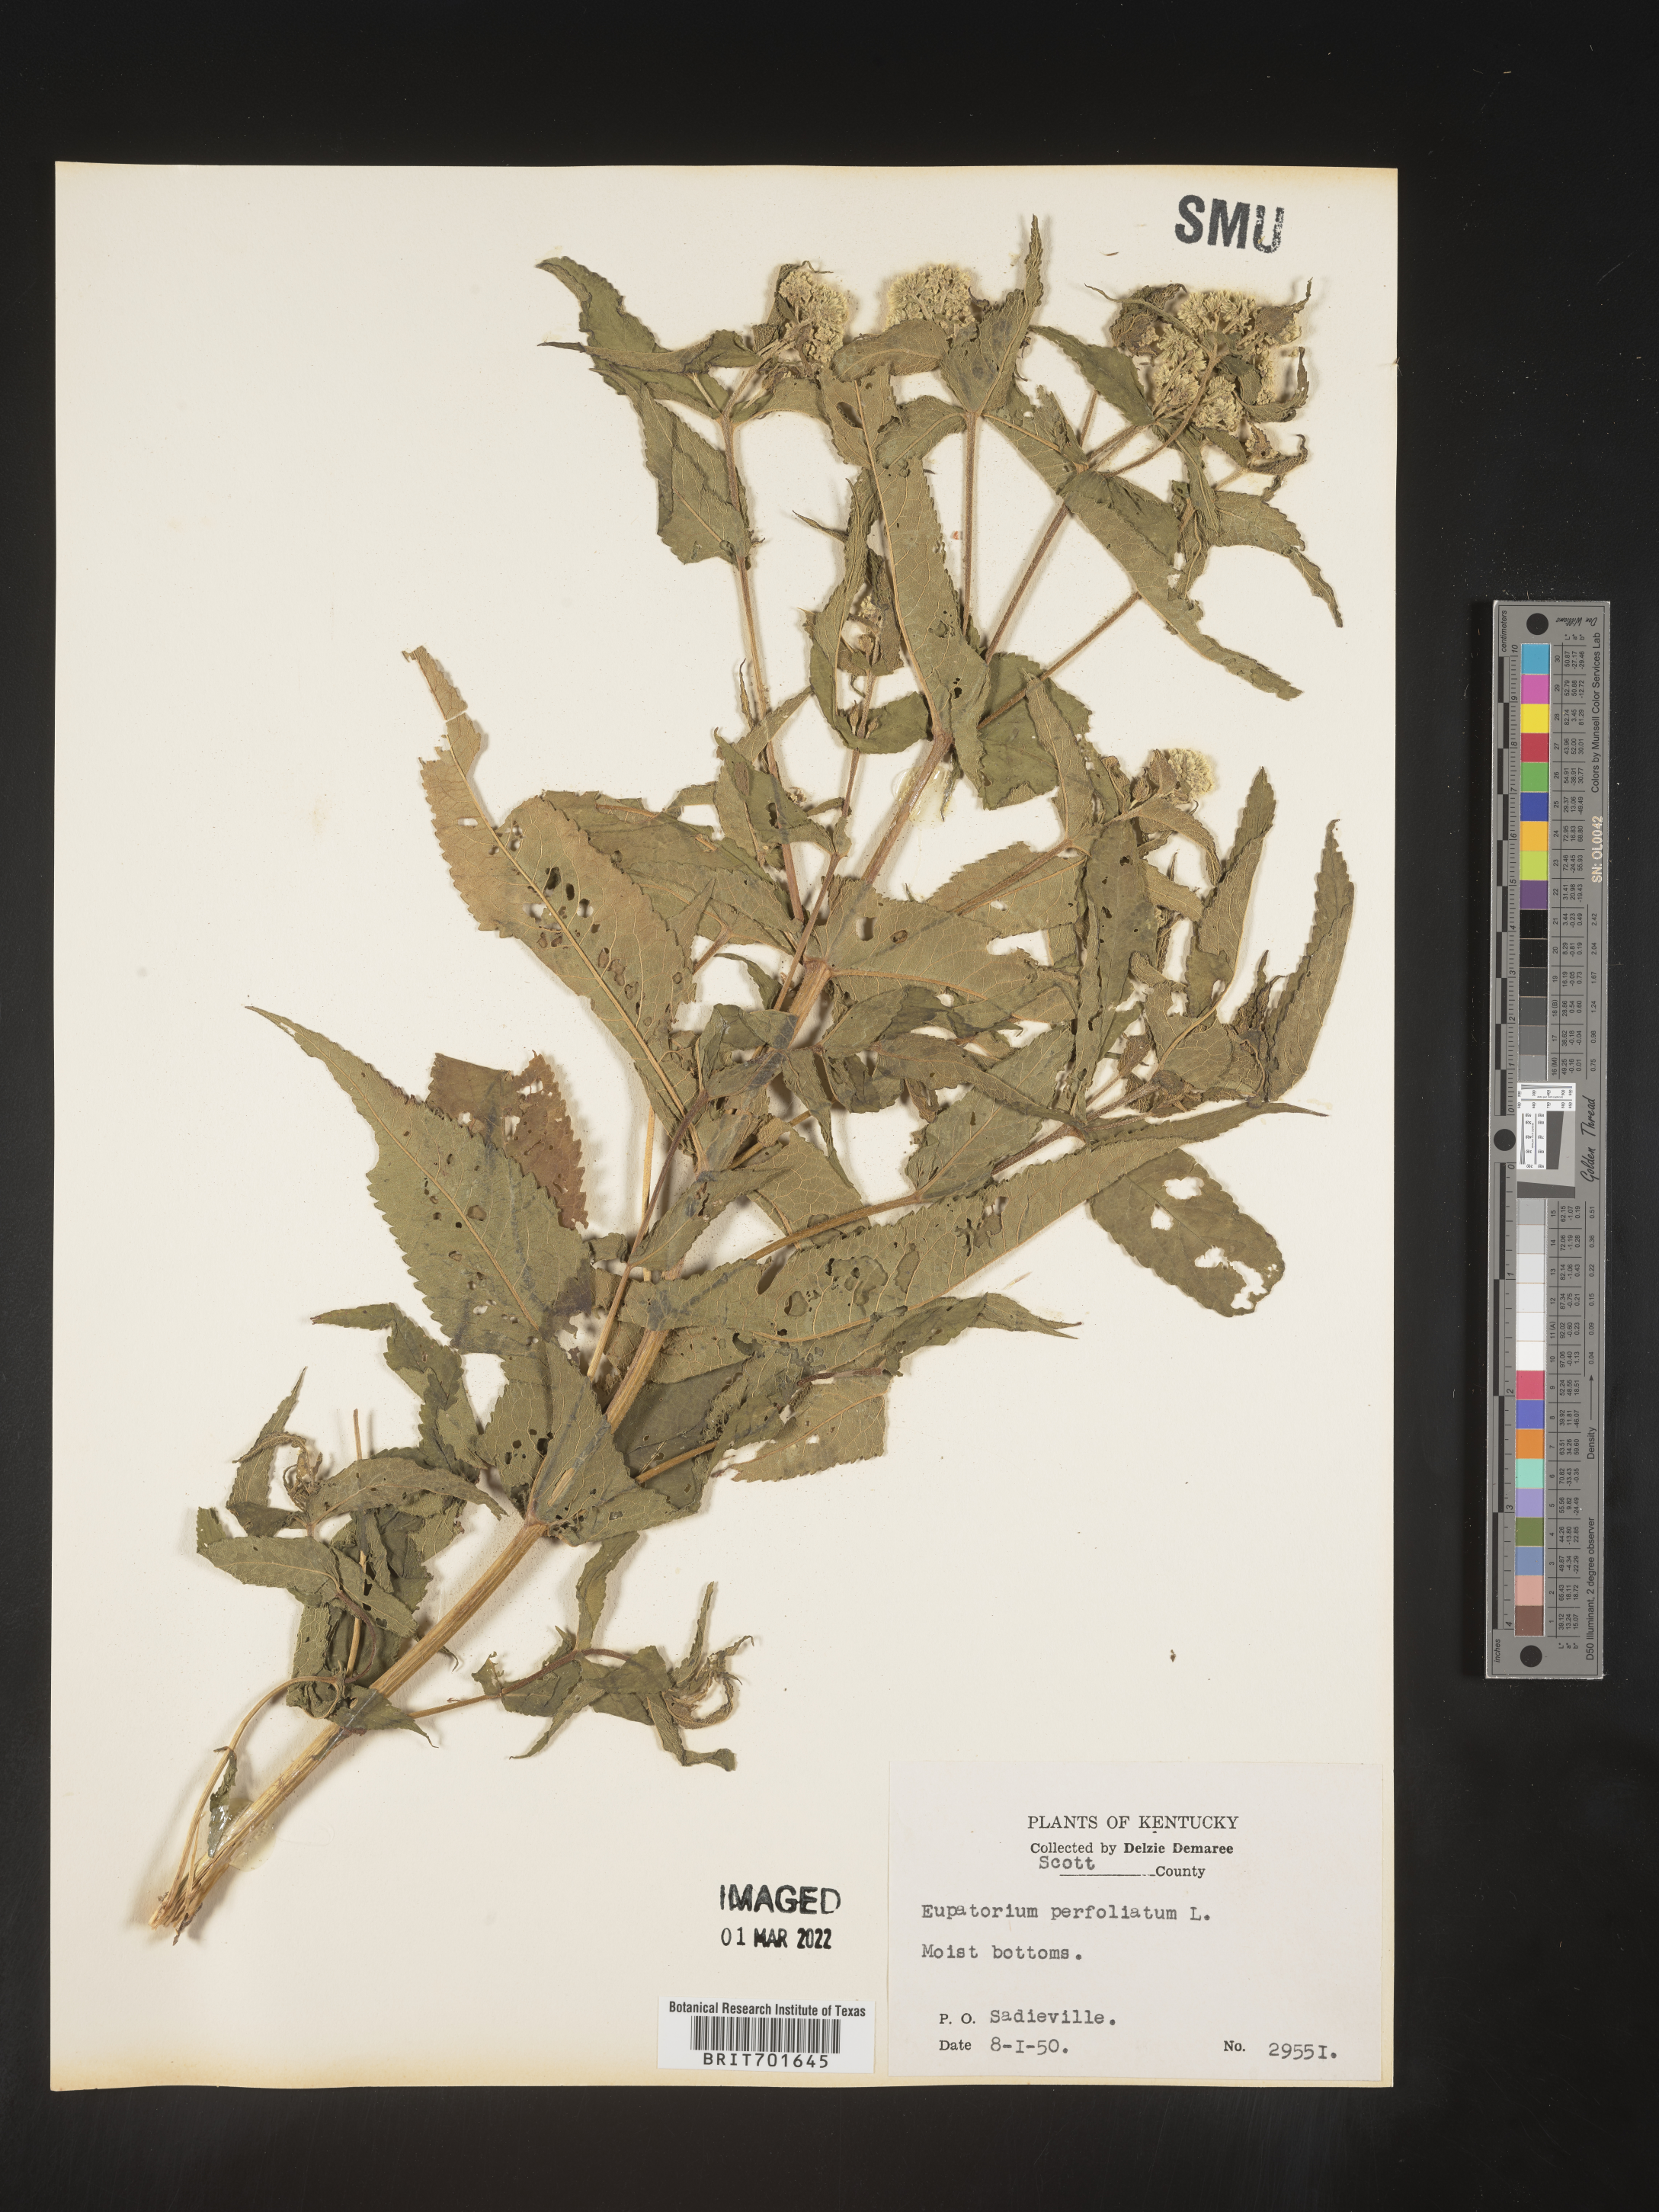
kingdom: Plantae
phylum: Tracheophyta
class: Magnoliopsida
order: Asterales
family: Asteraceae
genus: Eupatorium
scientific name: Eupatorium perfoliatum
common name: Boneset
